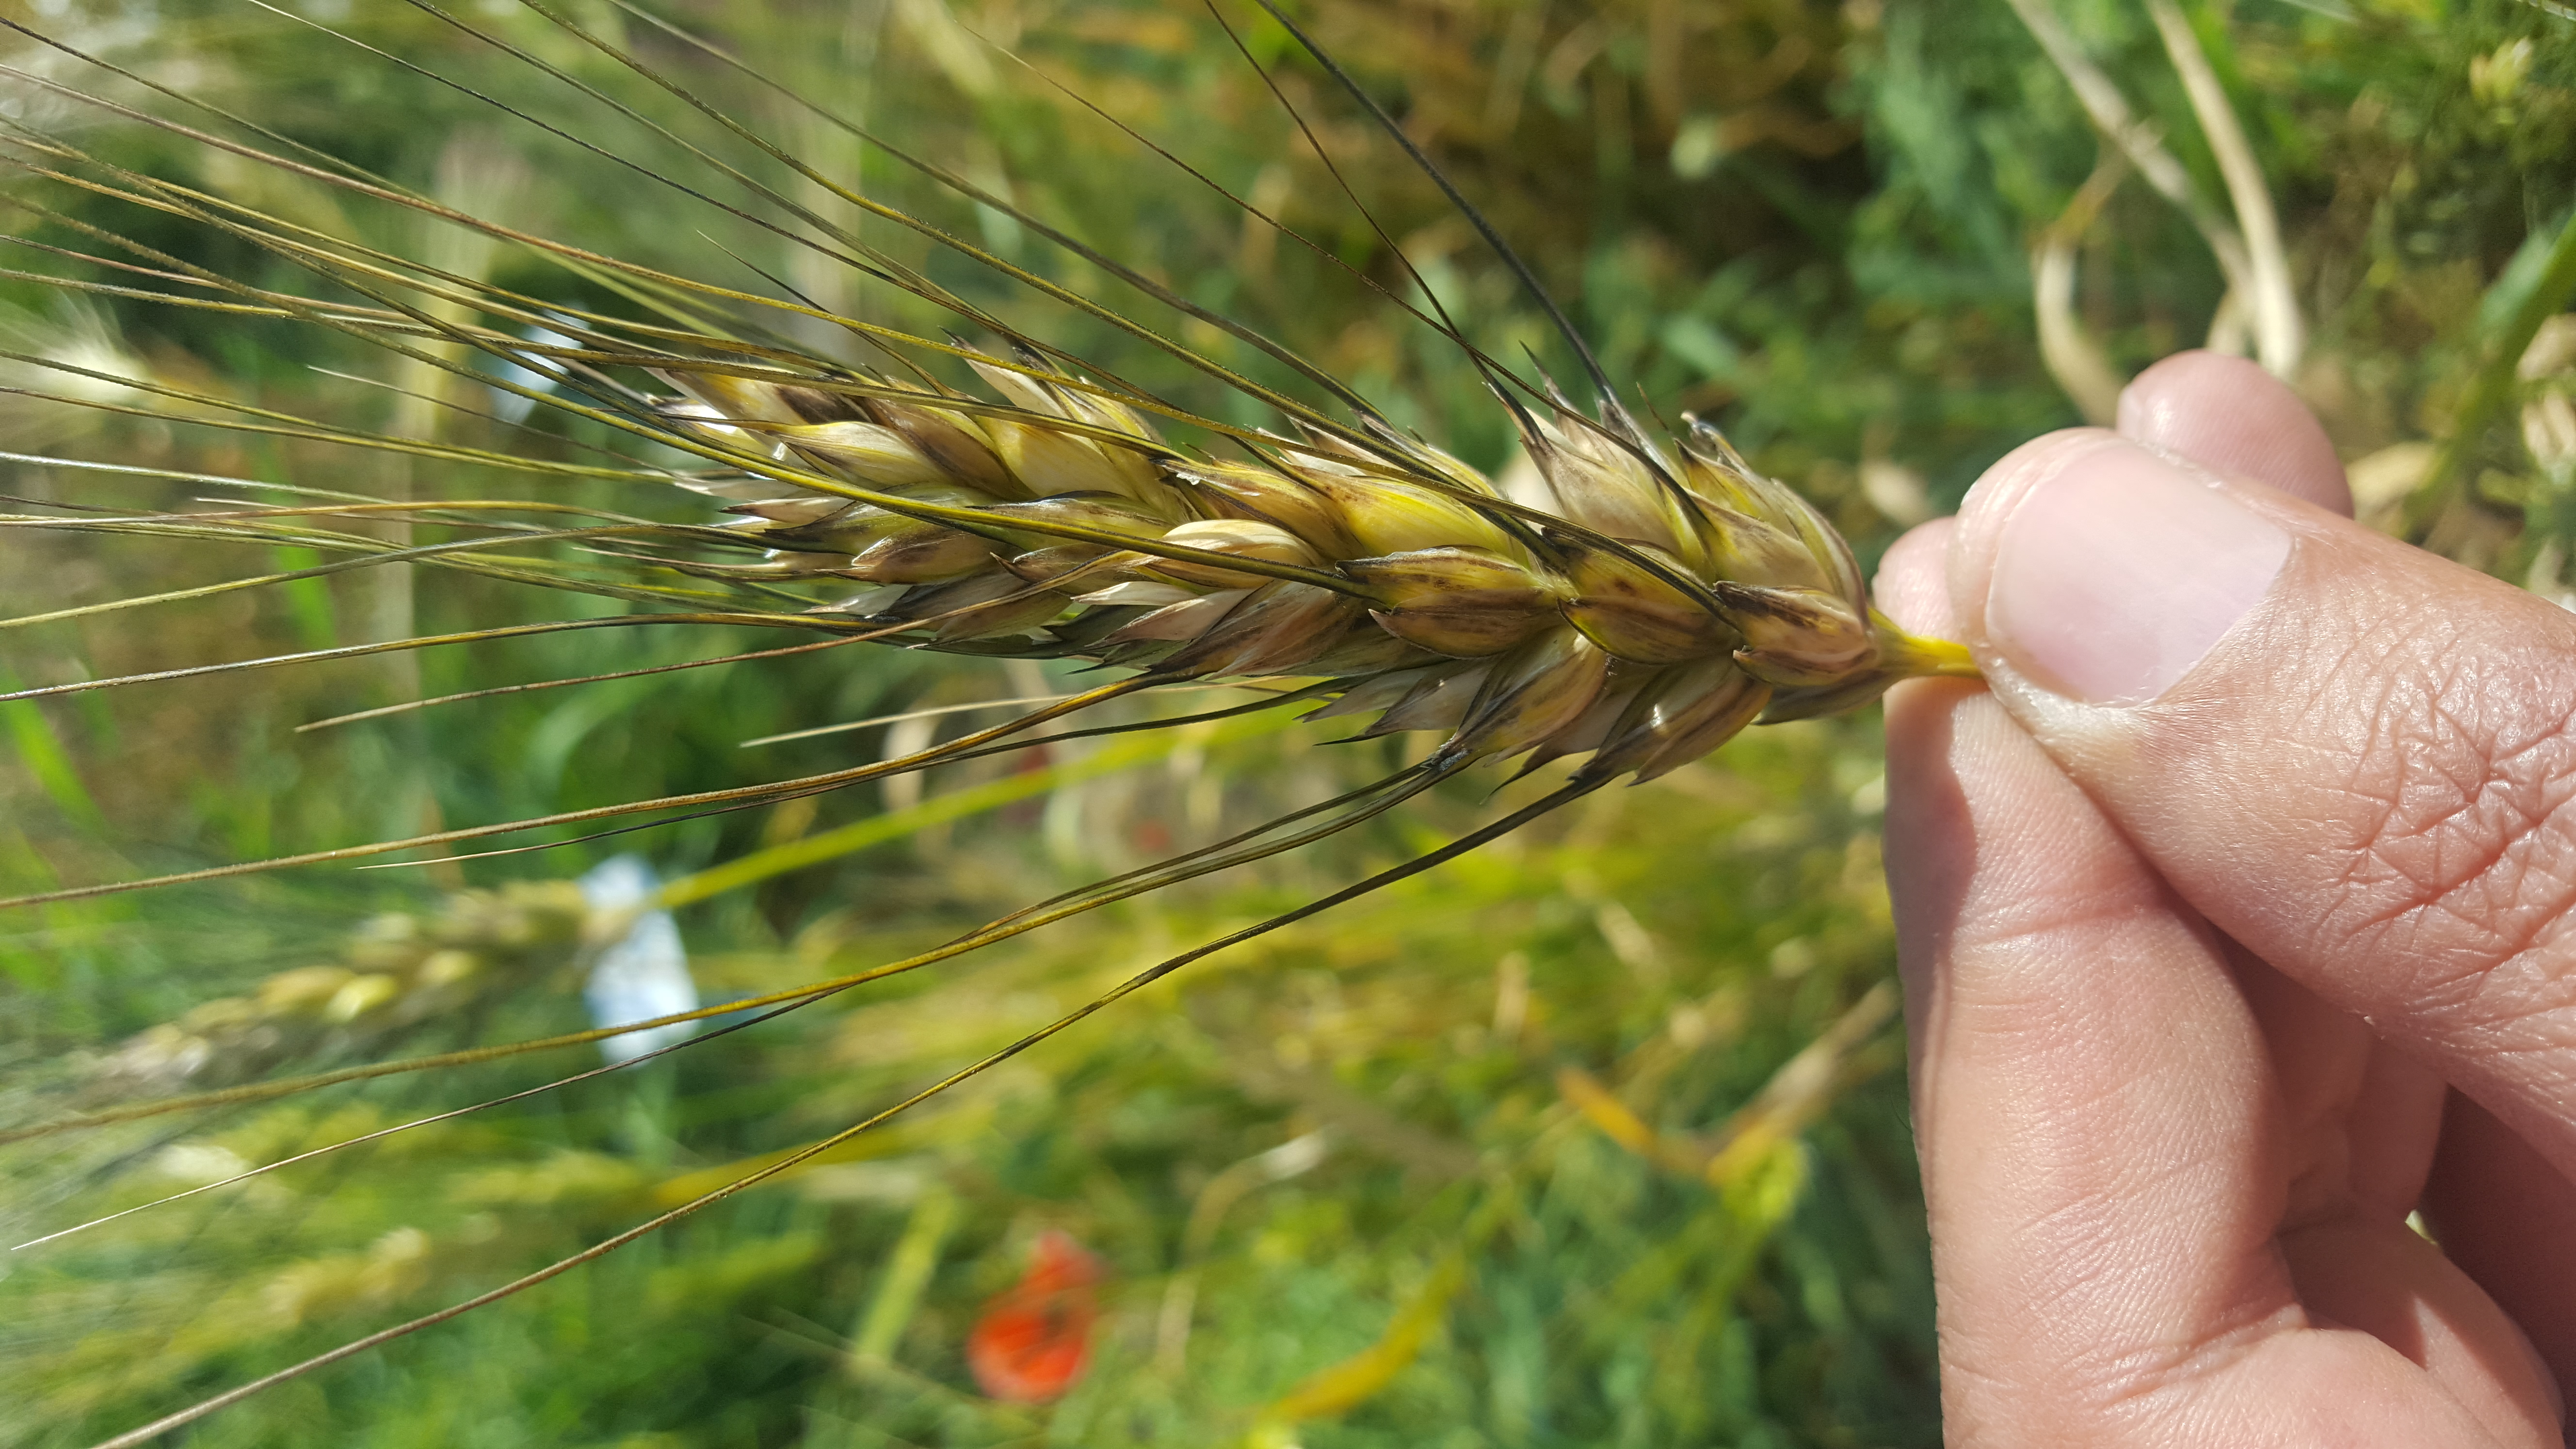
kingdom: Plantae
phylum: Tracheophyta
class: Liliopsida
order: Poales
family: Poaceae
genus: Triticum
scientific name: Triticum turgidum
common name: Rivet wheat
